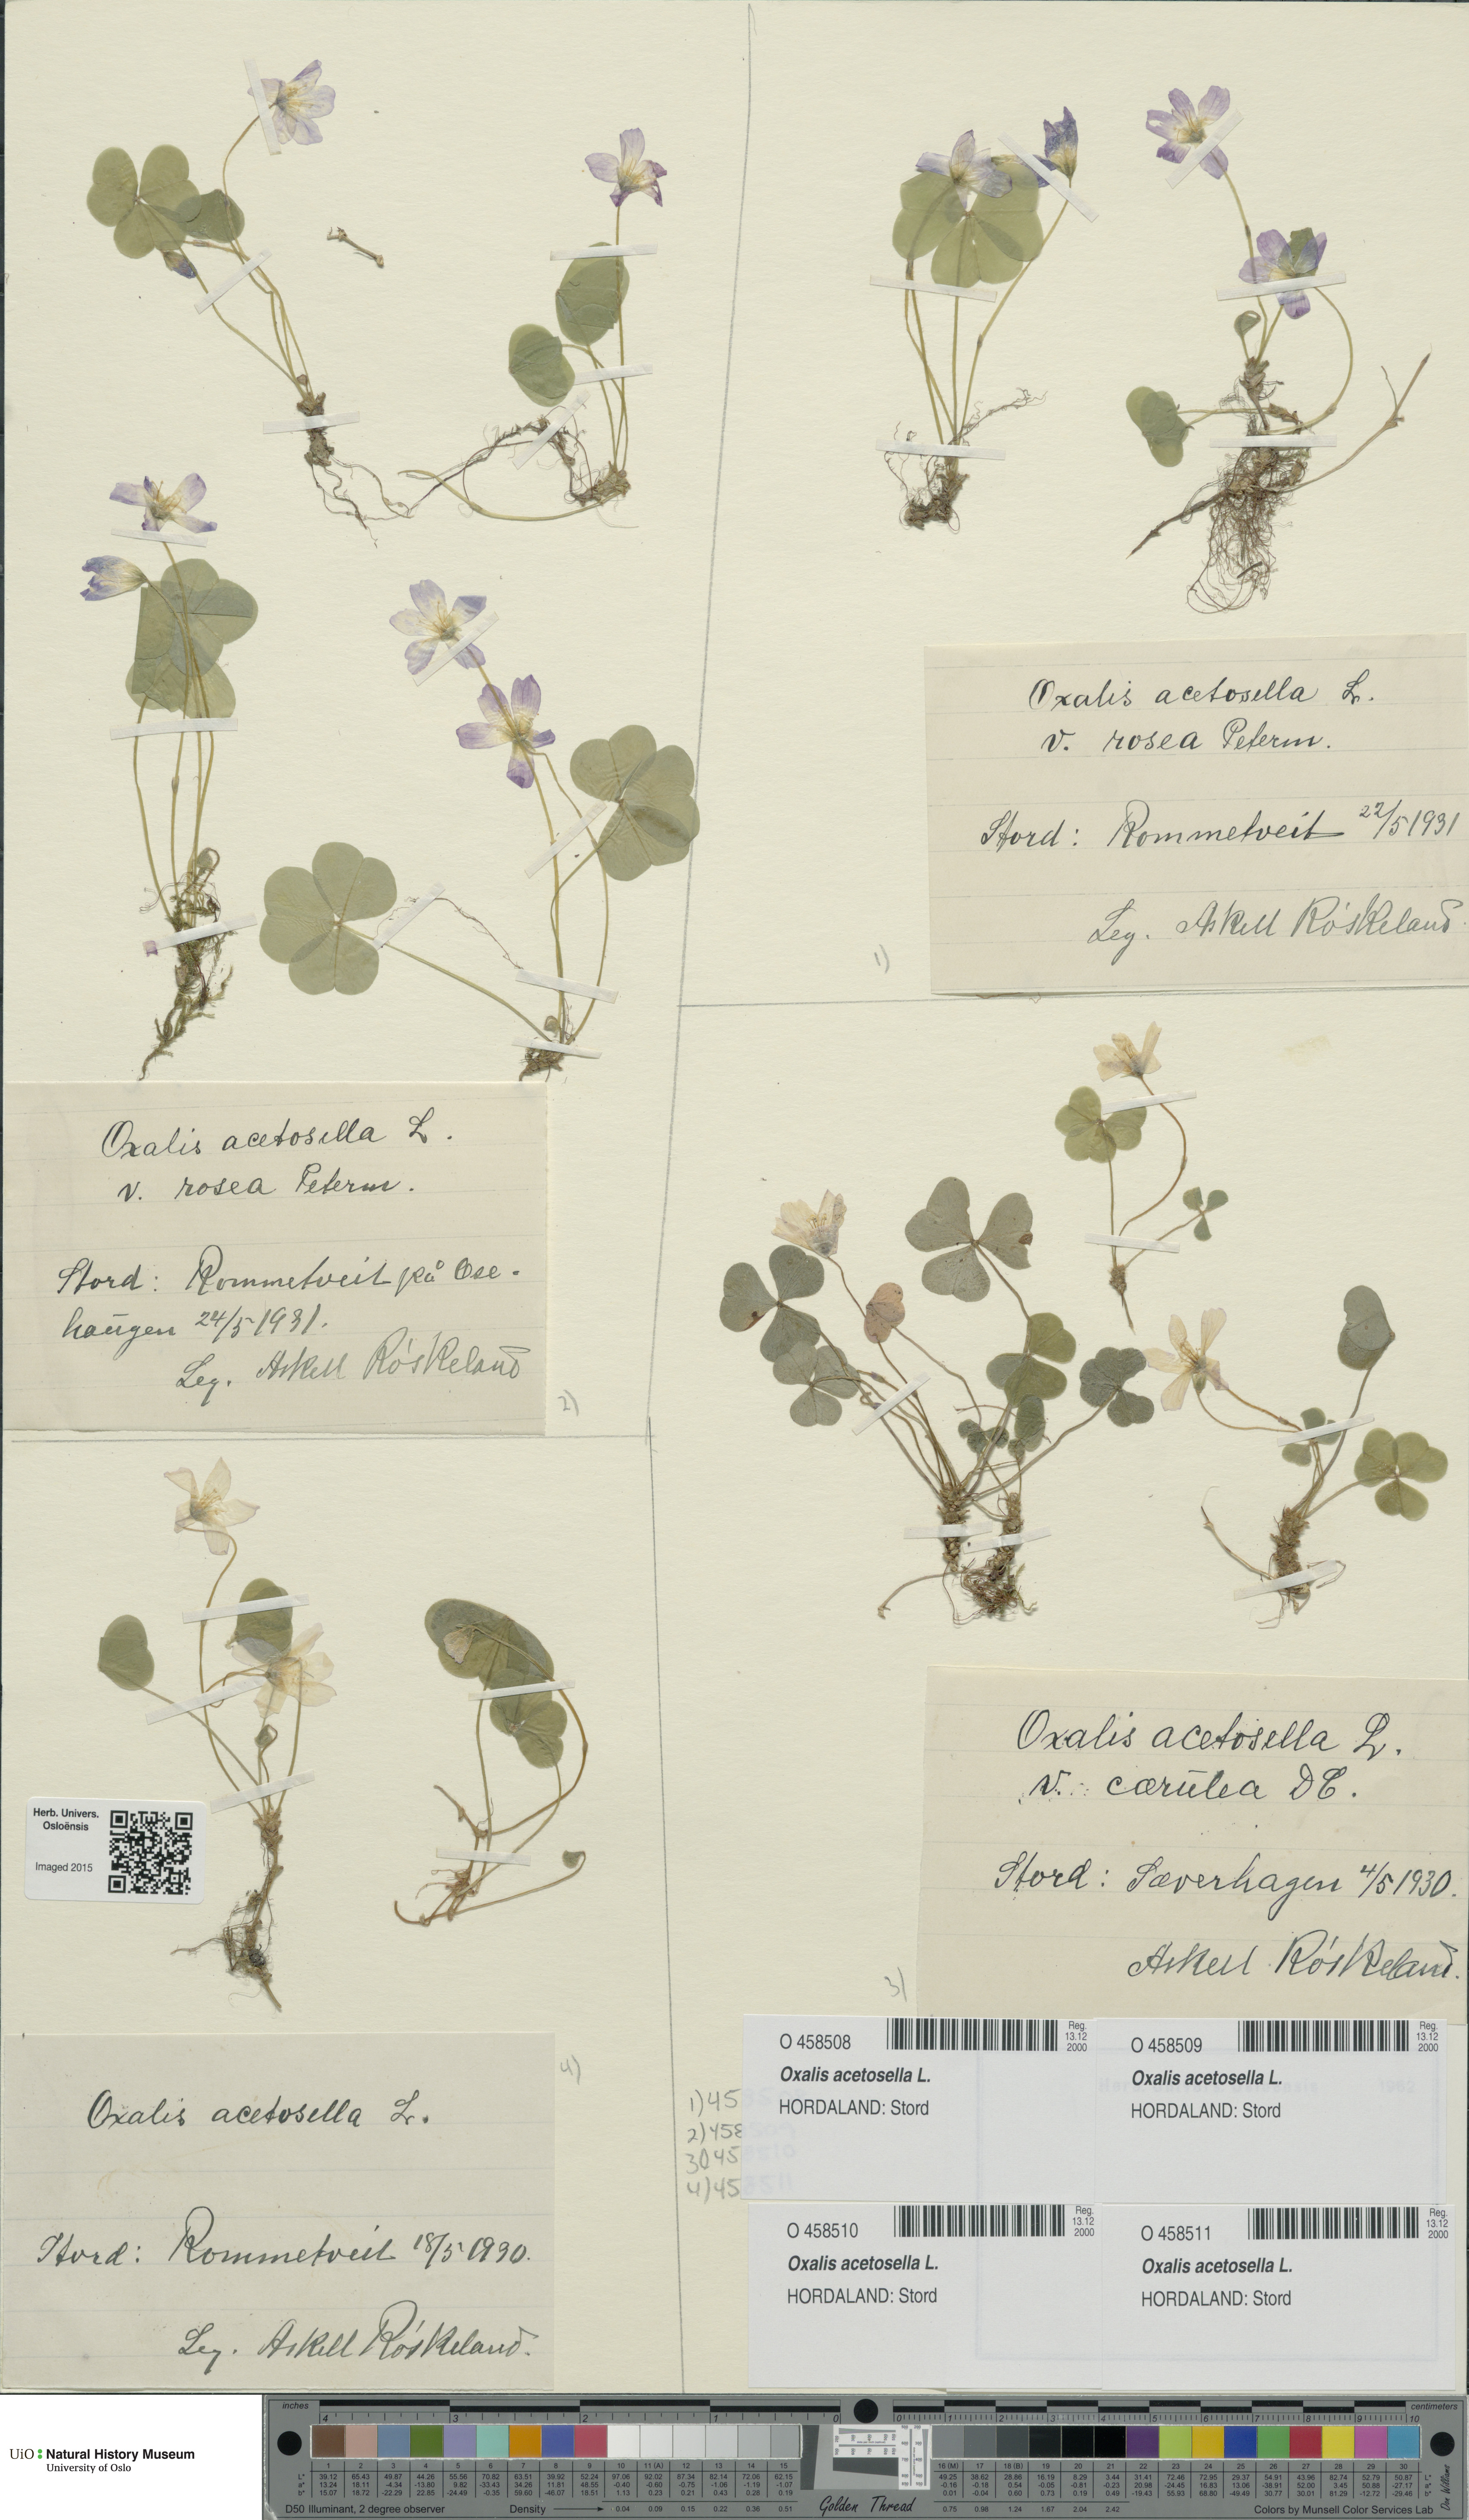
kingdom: Plantae
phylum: Tracheophyta
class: Magnoliopsida
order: Oxalidales
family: Oxalidaceae
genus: Oxalis
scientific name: Oxalis acetosella
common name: Wood-sorrel
